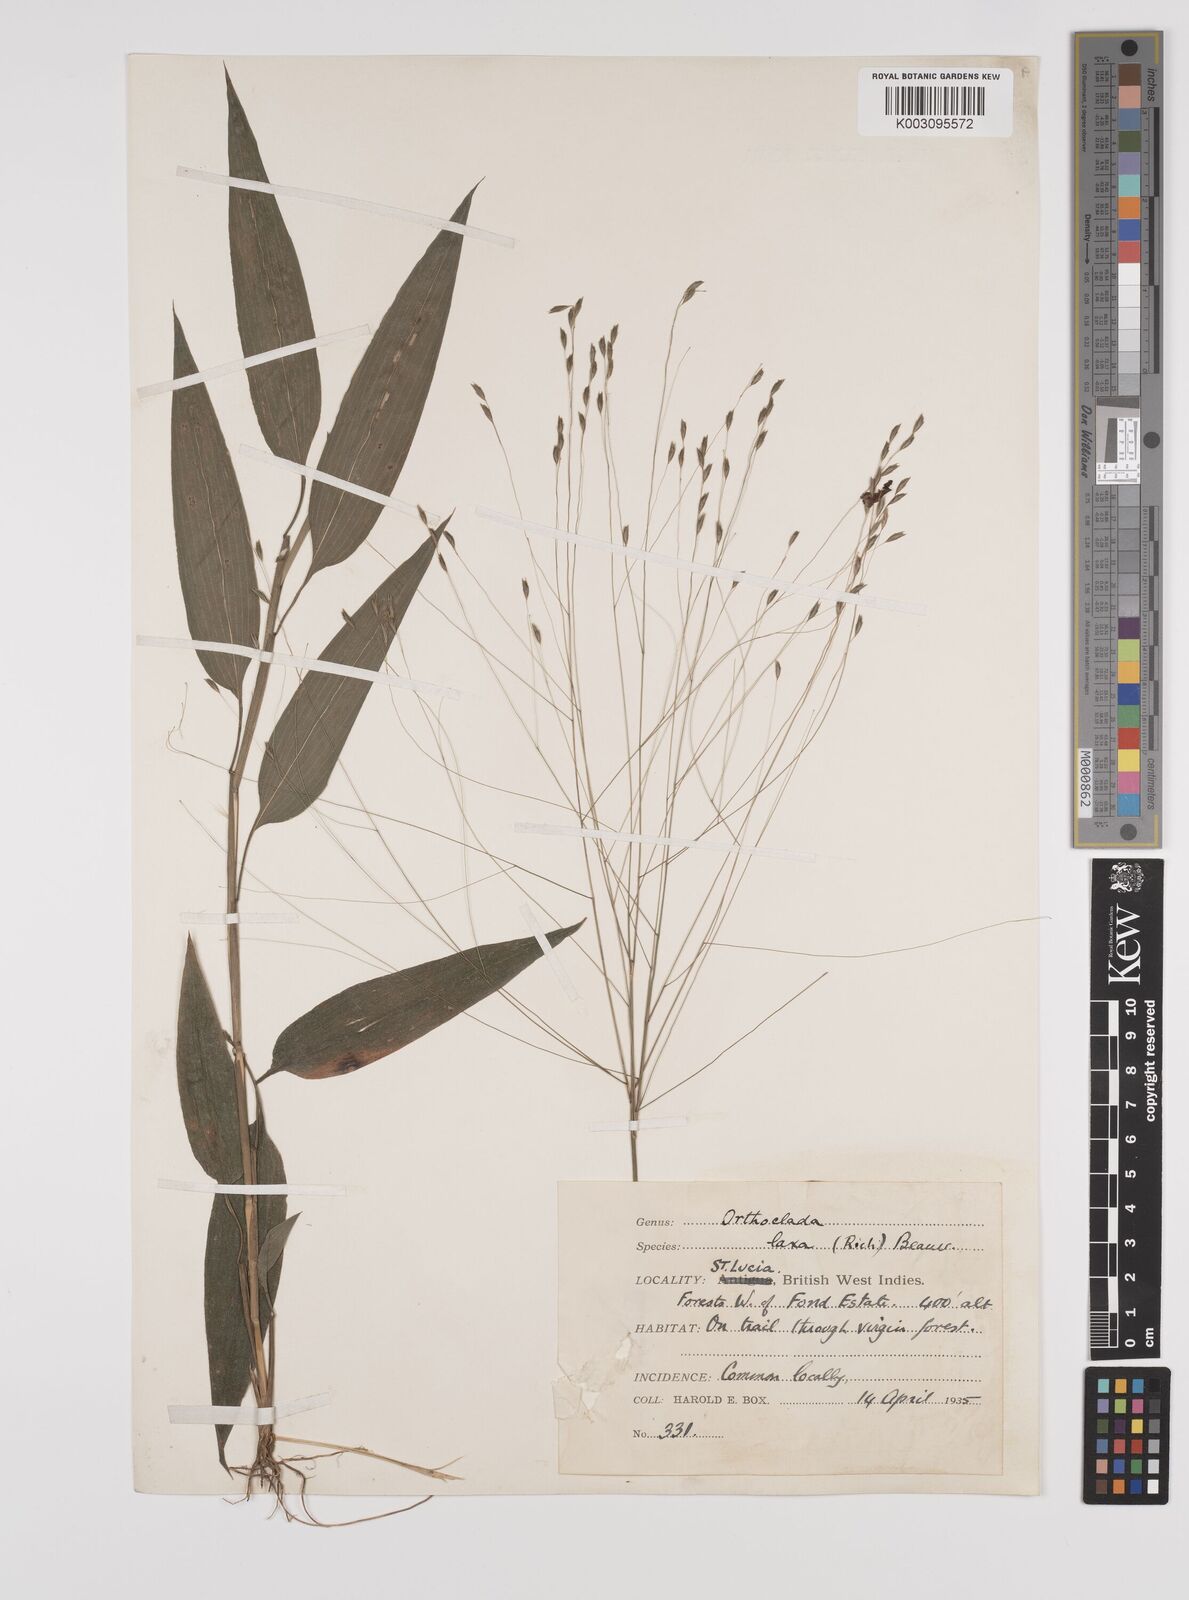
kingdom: Plantae
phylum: Tracheophyta
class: Liliopsida
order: Poales
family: Poaceae
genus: Orthoclada
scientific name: Orthoclada laxa
